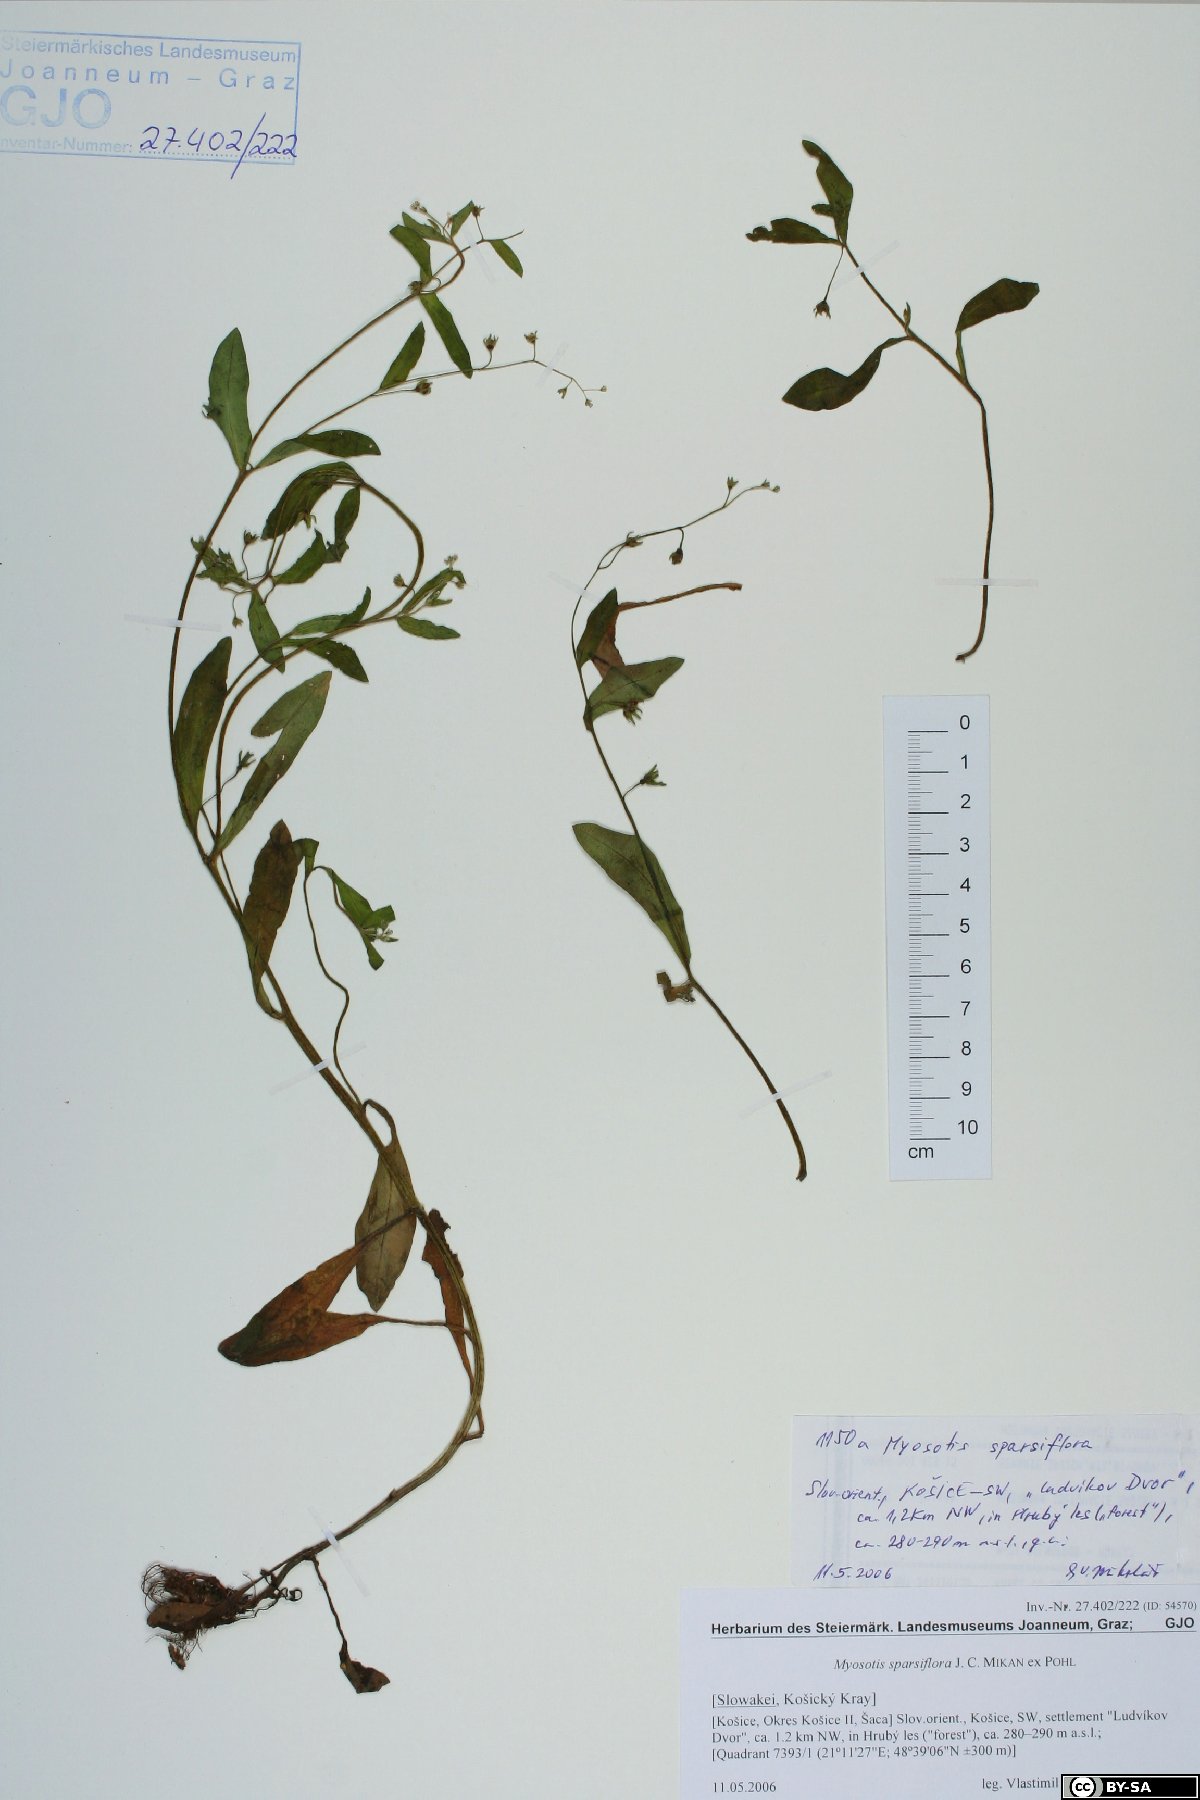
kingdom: Plantae
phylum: Tracheophyta
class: Magnoliopsida
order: Boraginales
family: Boraginaceae
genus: Myosotis
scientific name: Myosotis sparsiflora
